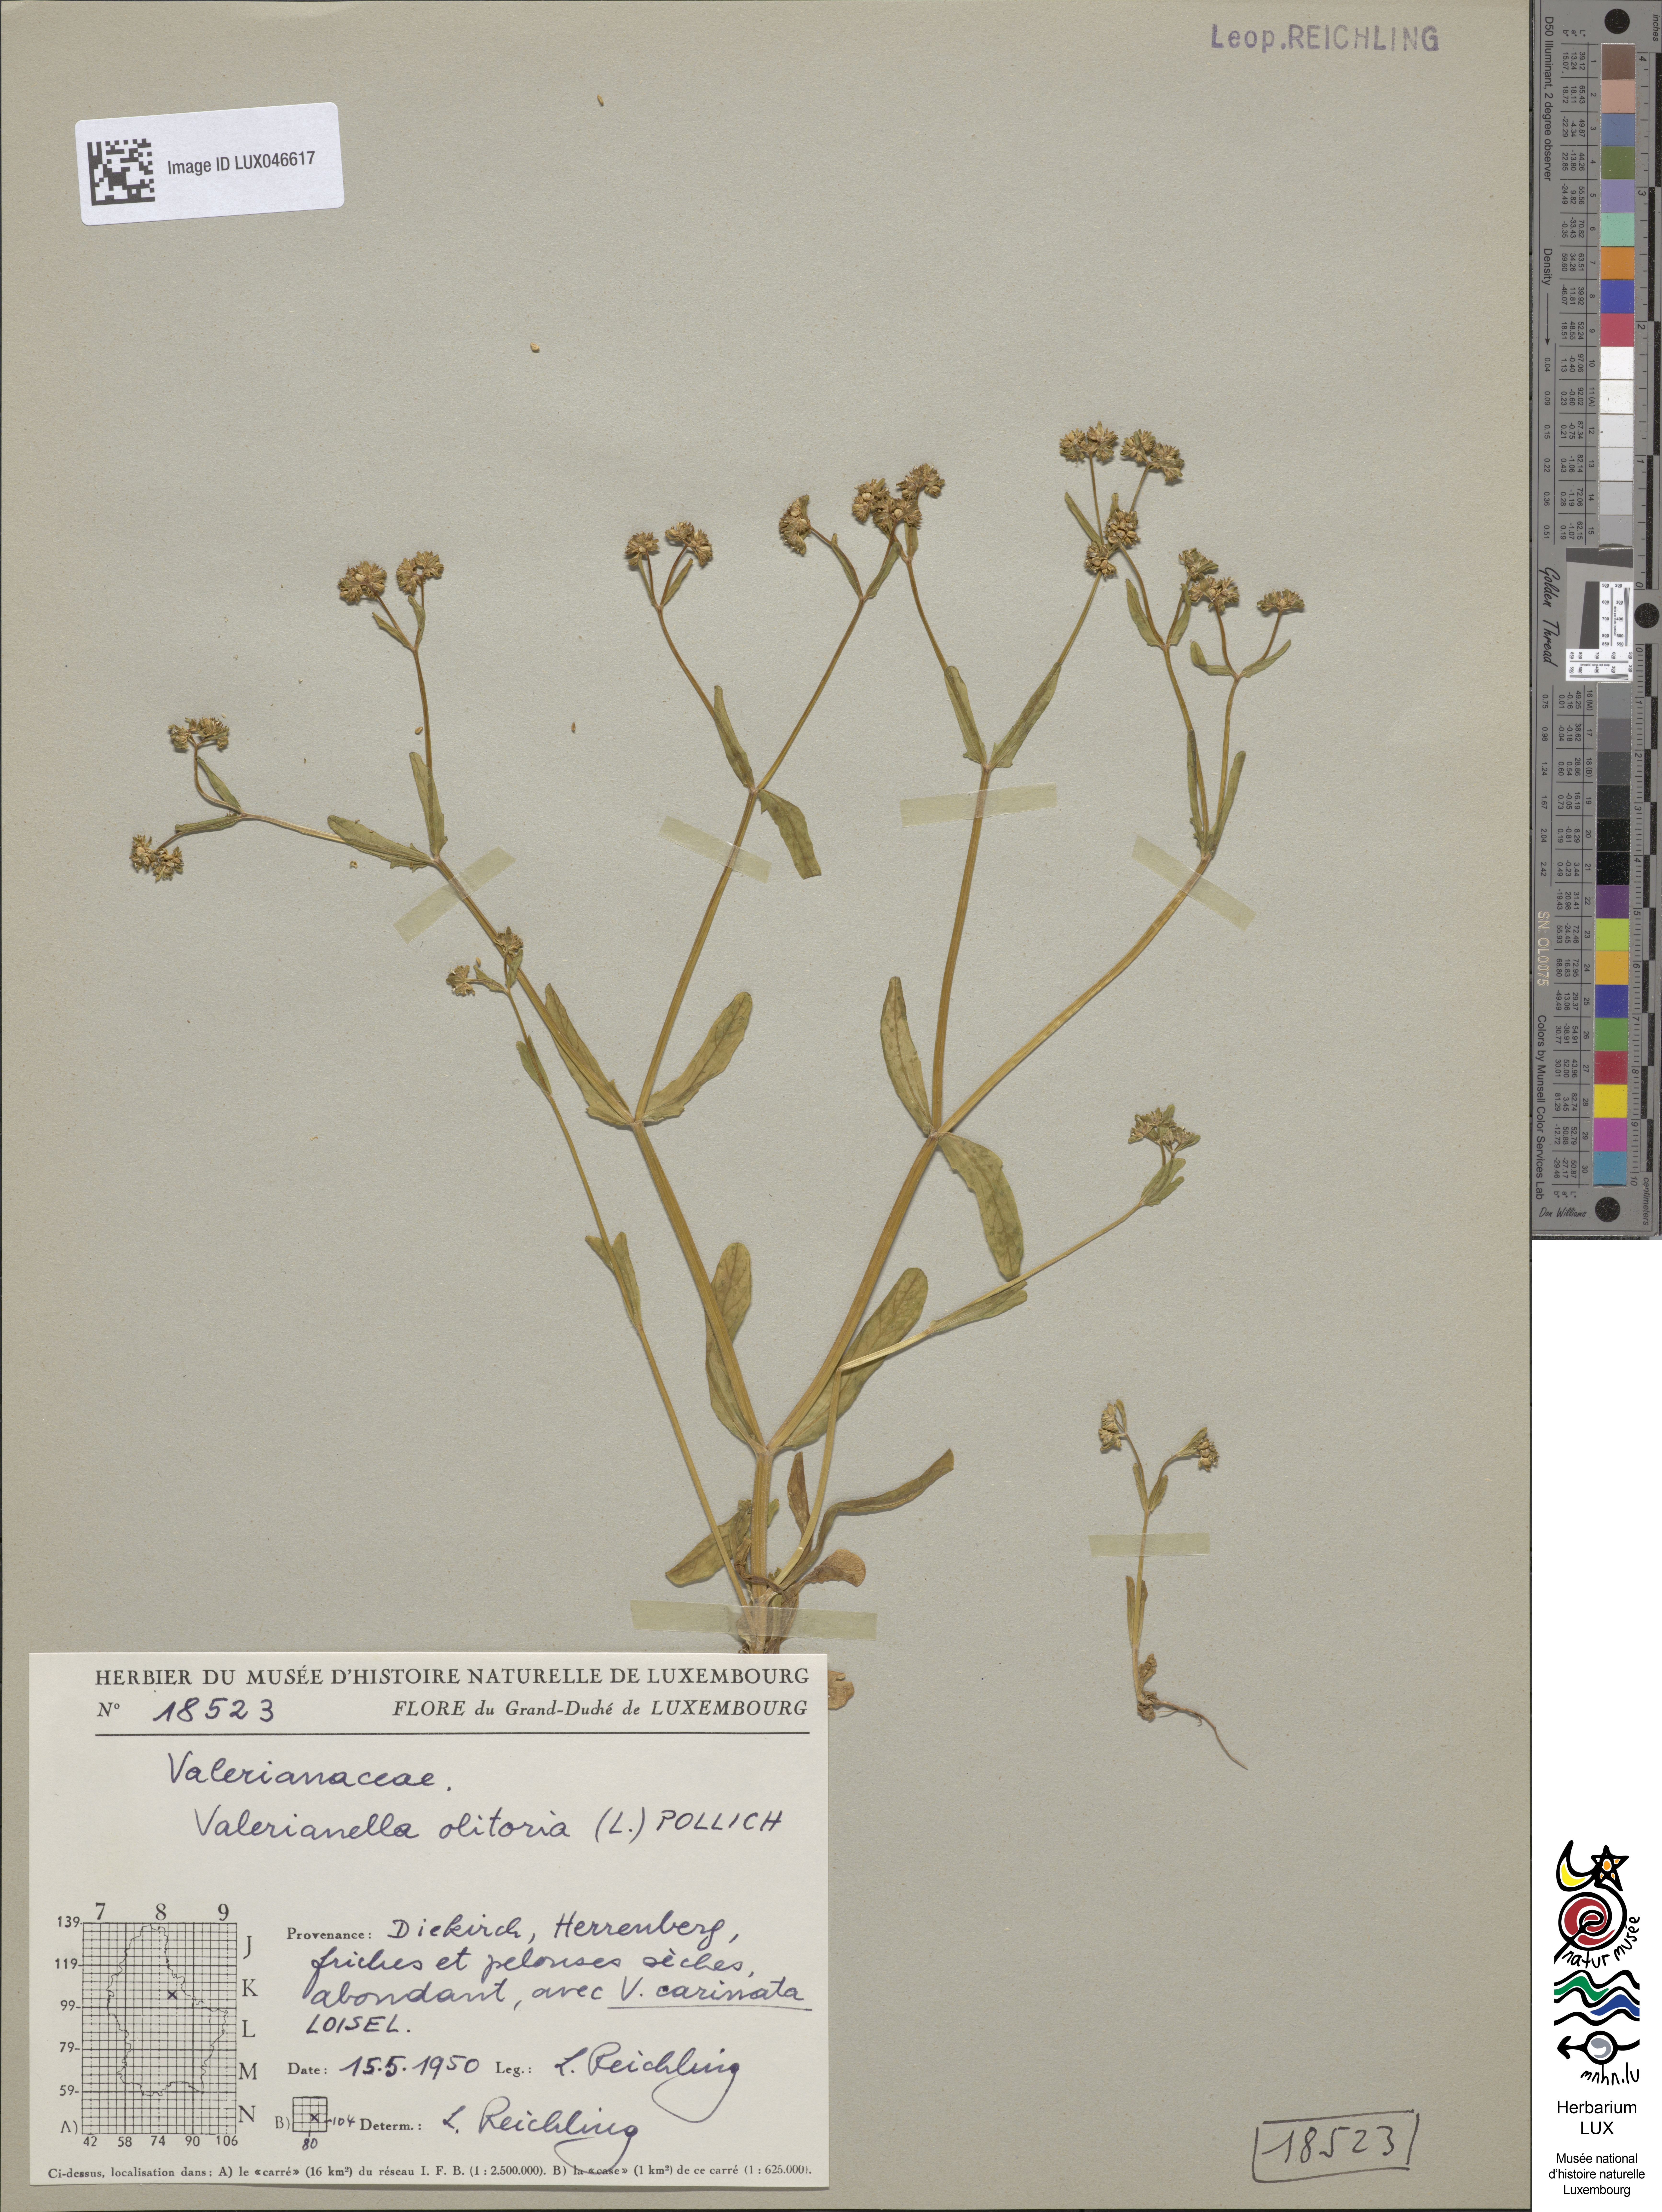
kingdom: Plantae
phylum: Tracheophyta
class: Magnoliopsida
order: Dipsacales
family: Caprifoliaceae
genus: Valerianella
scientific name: Valerianella locusta
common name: Common cornsalad
